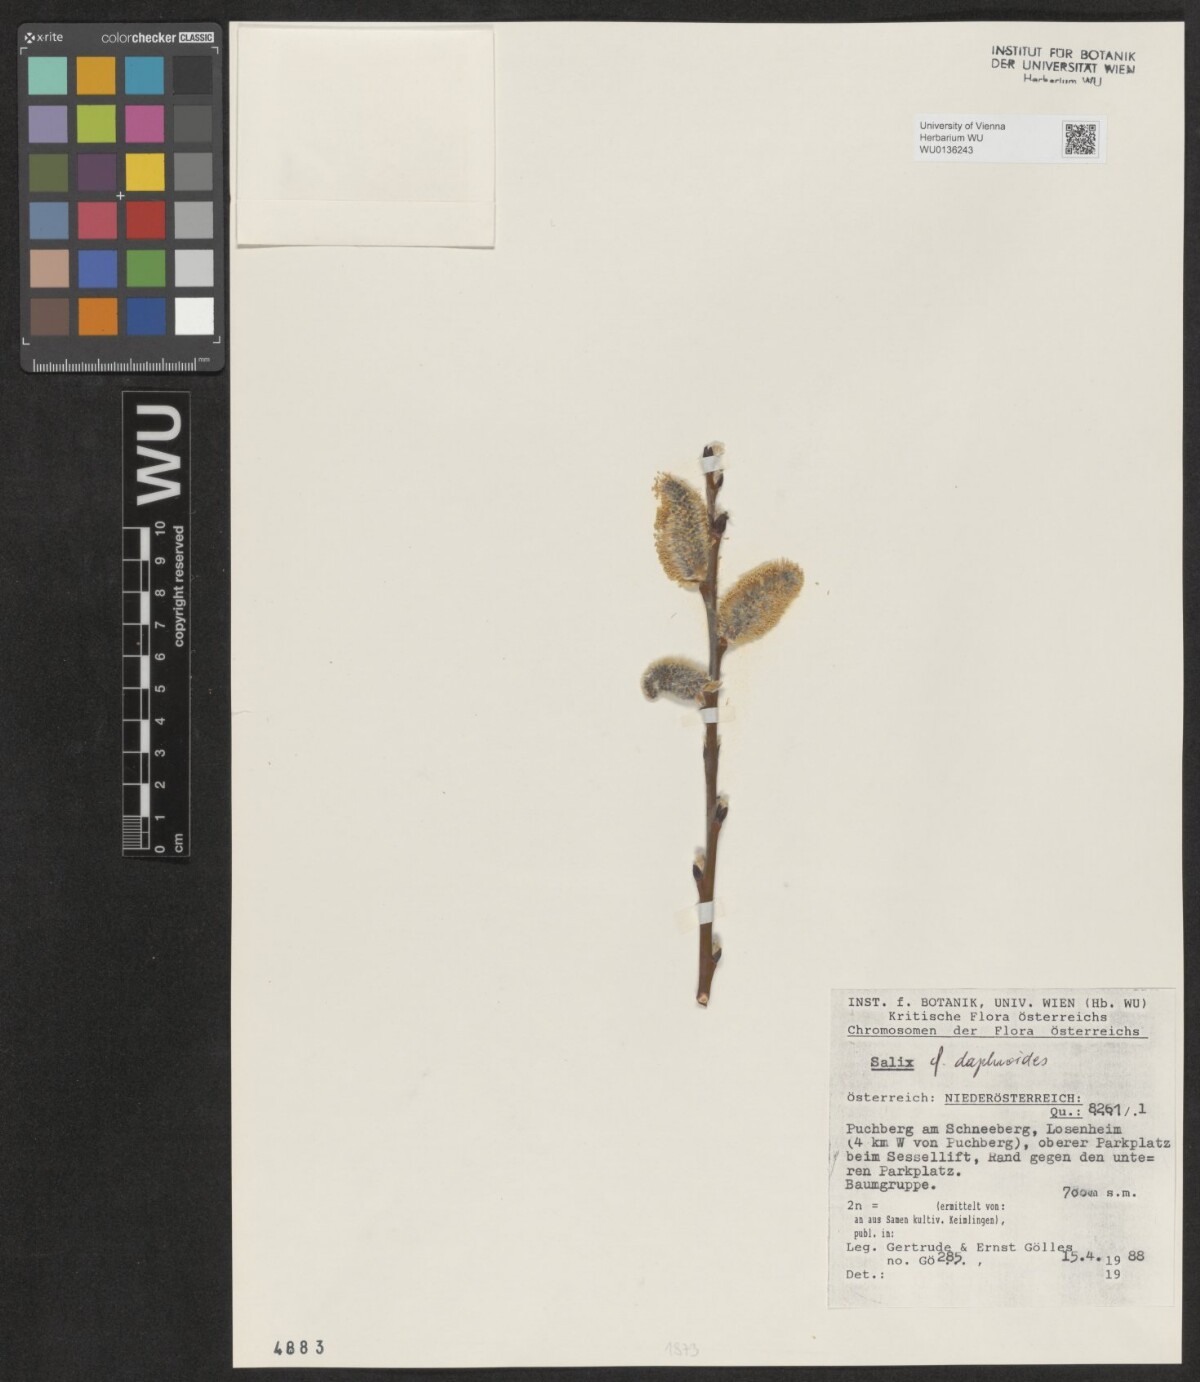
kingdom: Plantae
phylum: Tracheophyta
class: Magnoliopsida
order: Malpighiales
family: Salicaceae
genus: Salix
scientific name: Salix daphnoides
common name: European violet-willow
